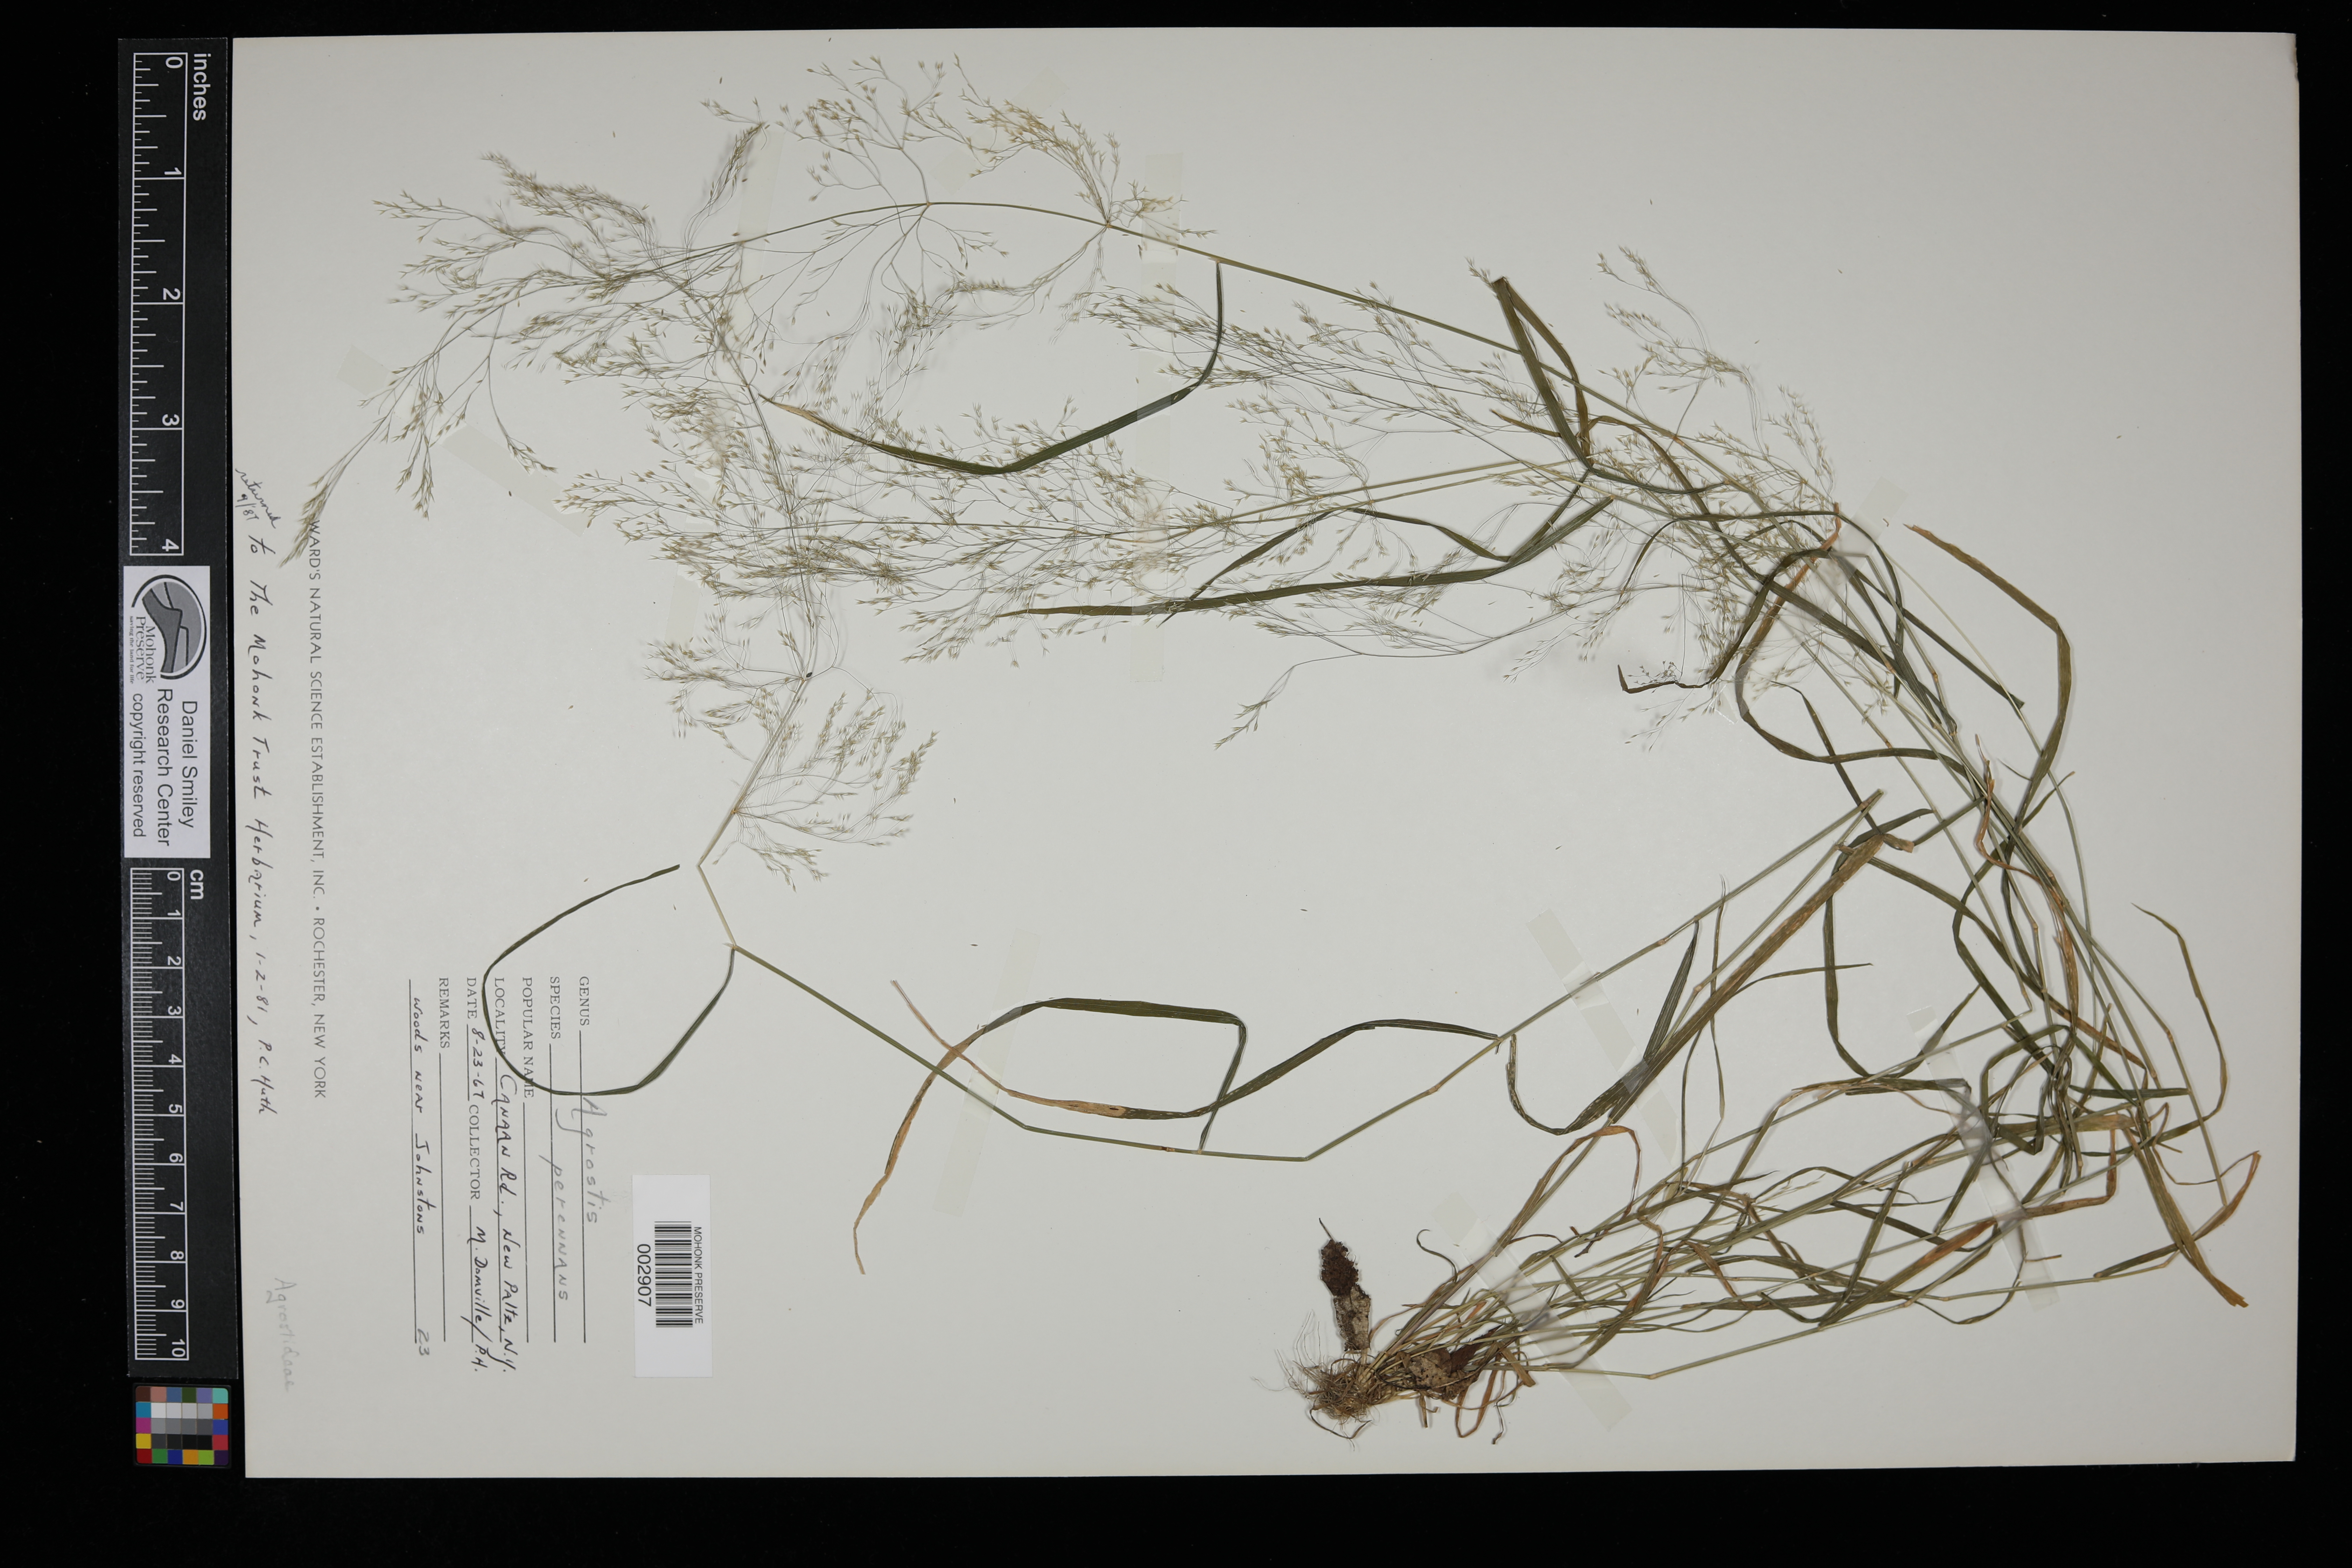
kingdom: Plantae
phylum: Tracheophyta
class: Liliopsida
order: Poales
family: Poaceae
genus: Agrostis
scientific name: Agrostis perennans
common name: Autumn bent
